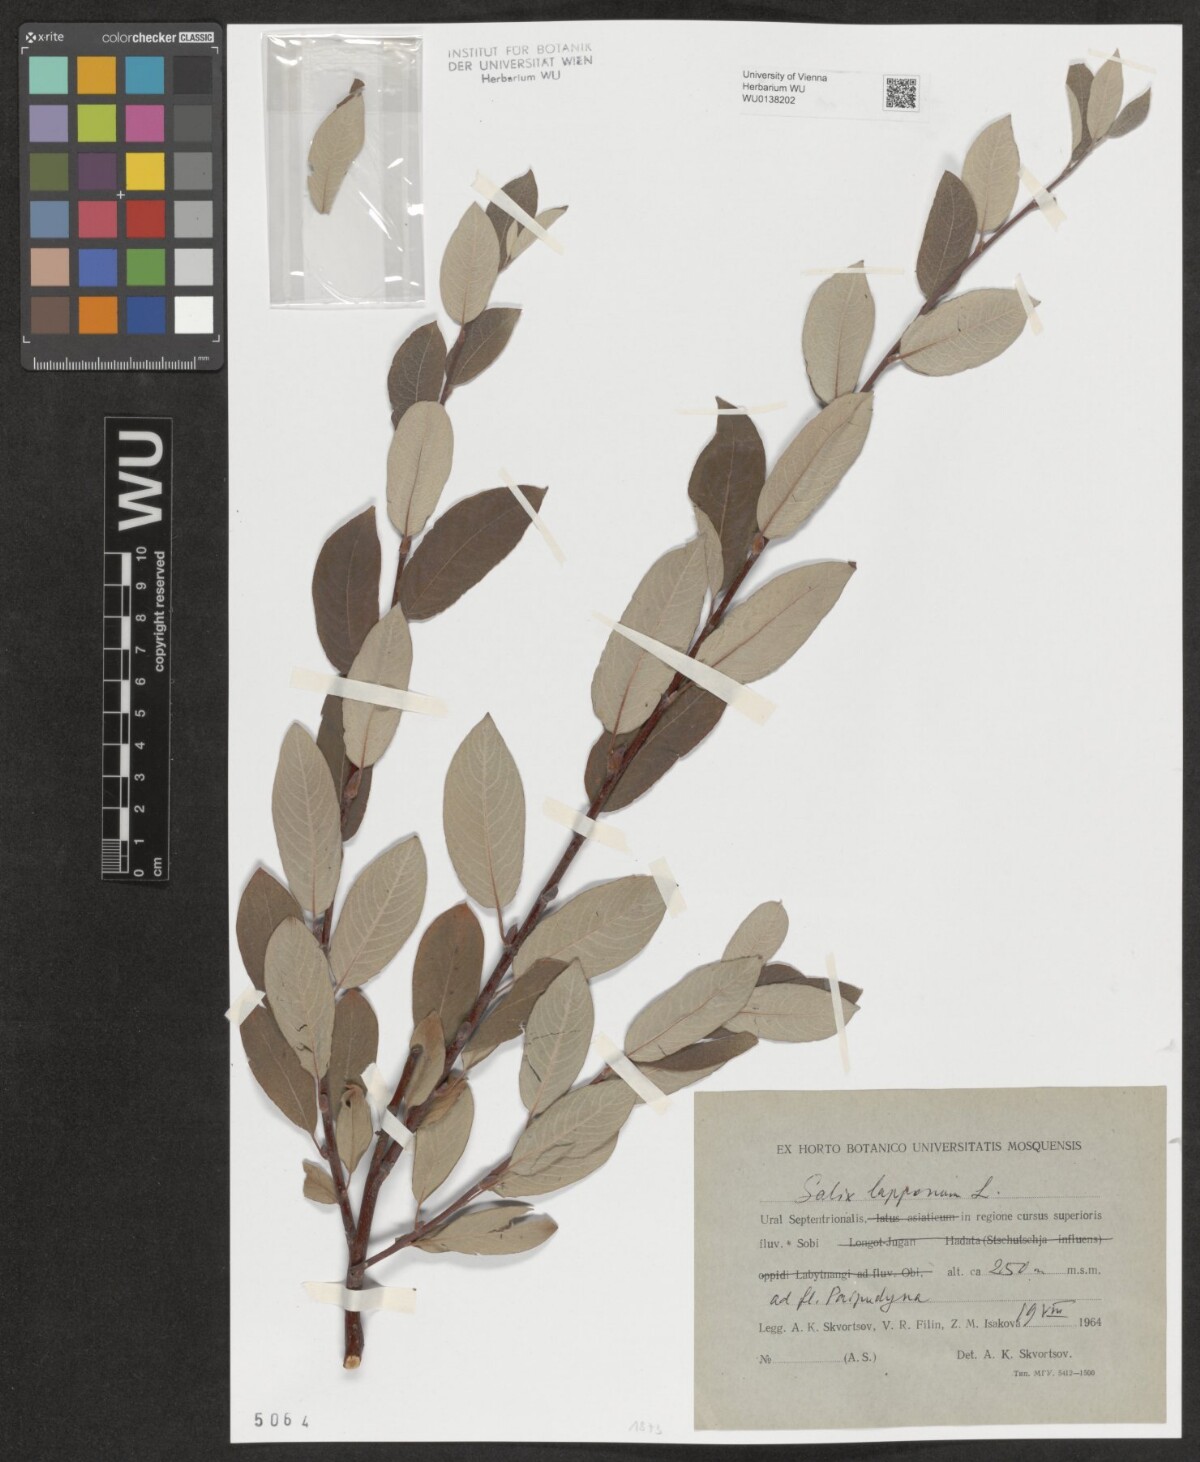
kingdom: Plantae
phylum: Tracheophyta
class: Magnoliopsida
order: Malpighiales
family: Salicaceae
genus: Salix
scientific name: Salix lapponum
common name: Downy willow
